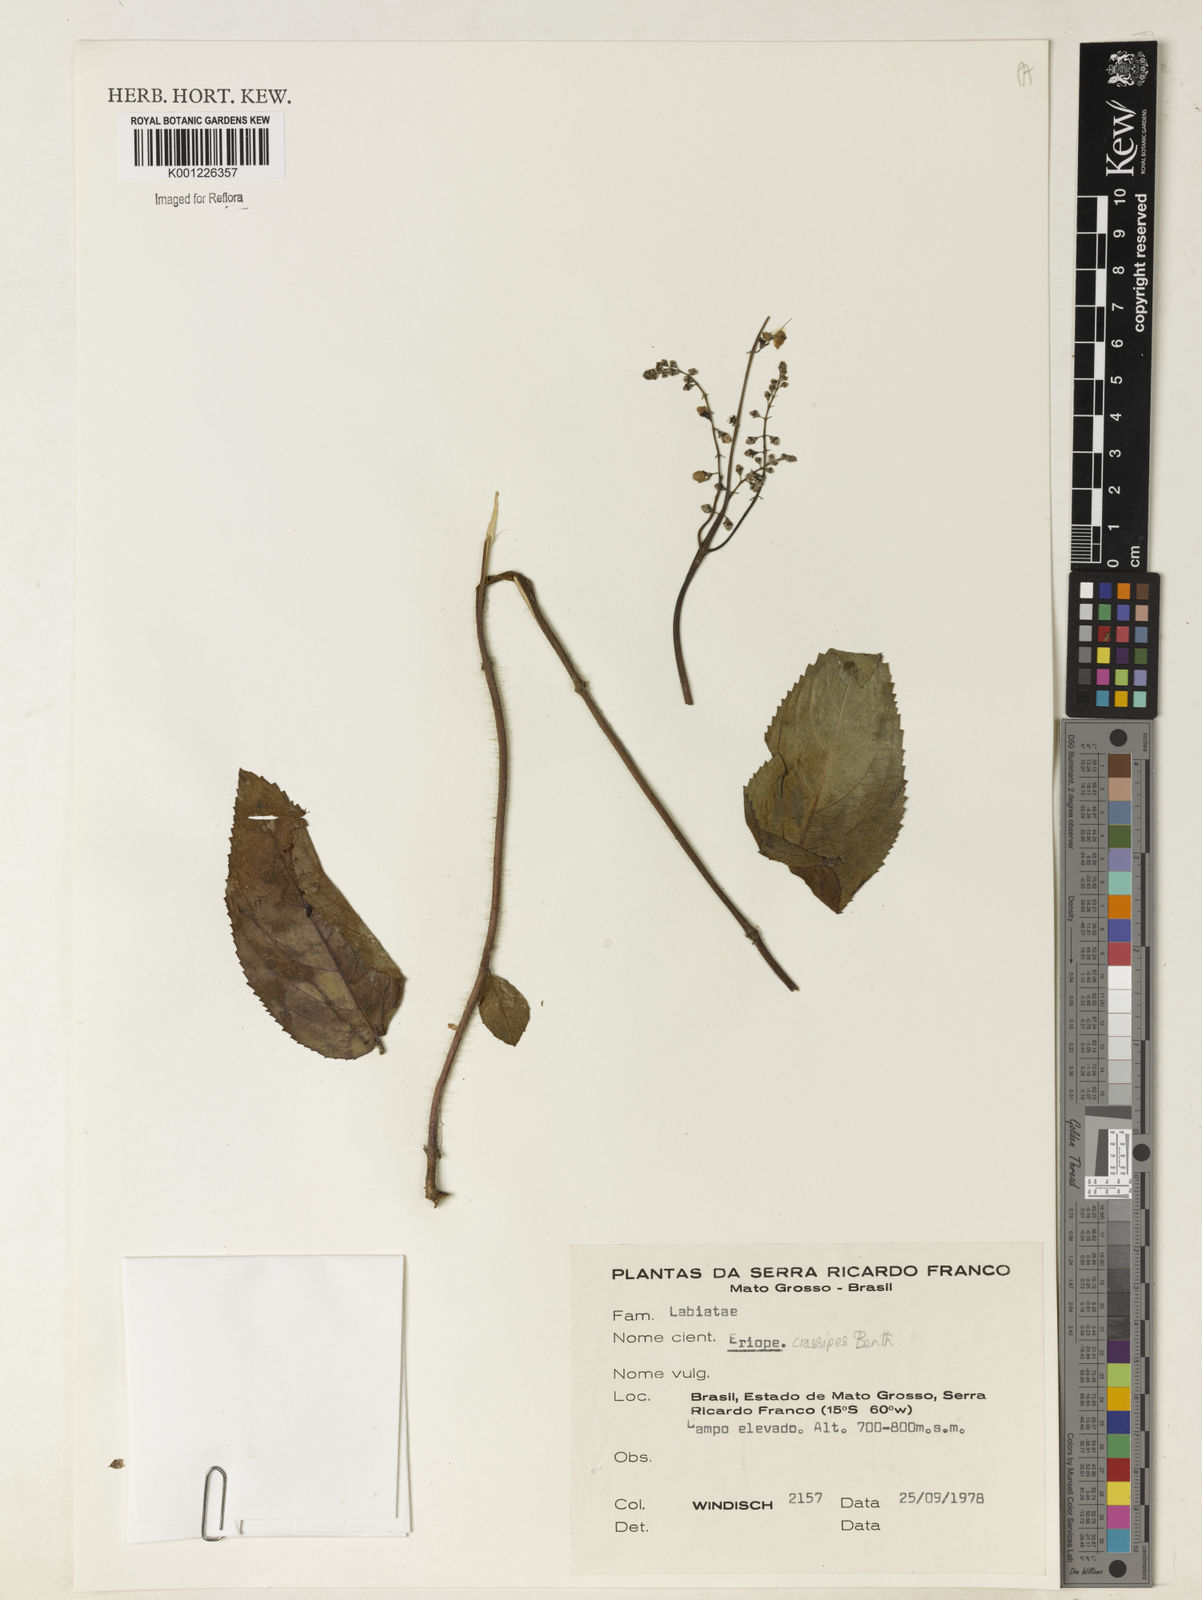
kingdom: Plantae
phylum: Tracheophyta
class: Magnoliopsida
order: Lamiales
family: Lamiaceae
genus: Eriope
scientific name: Eriope crassipes
